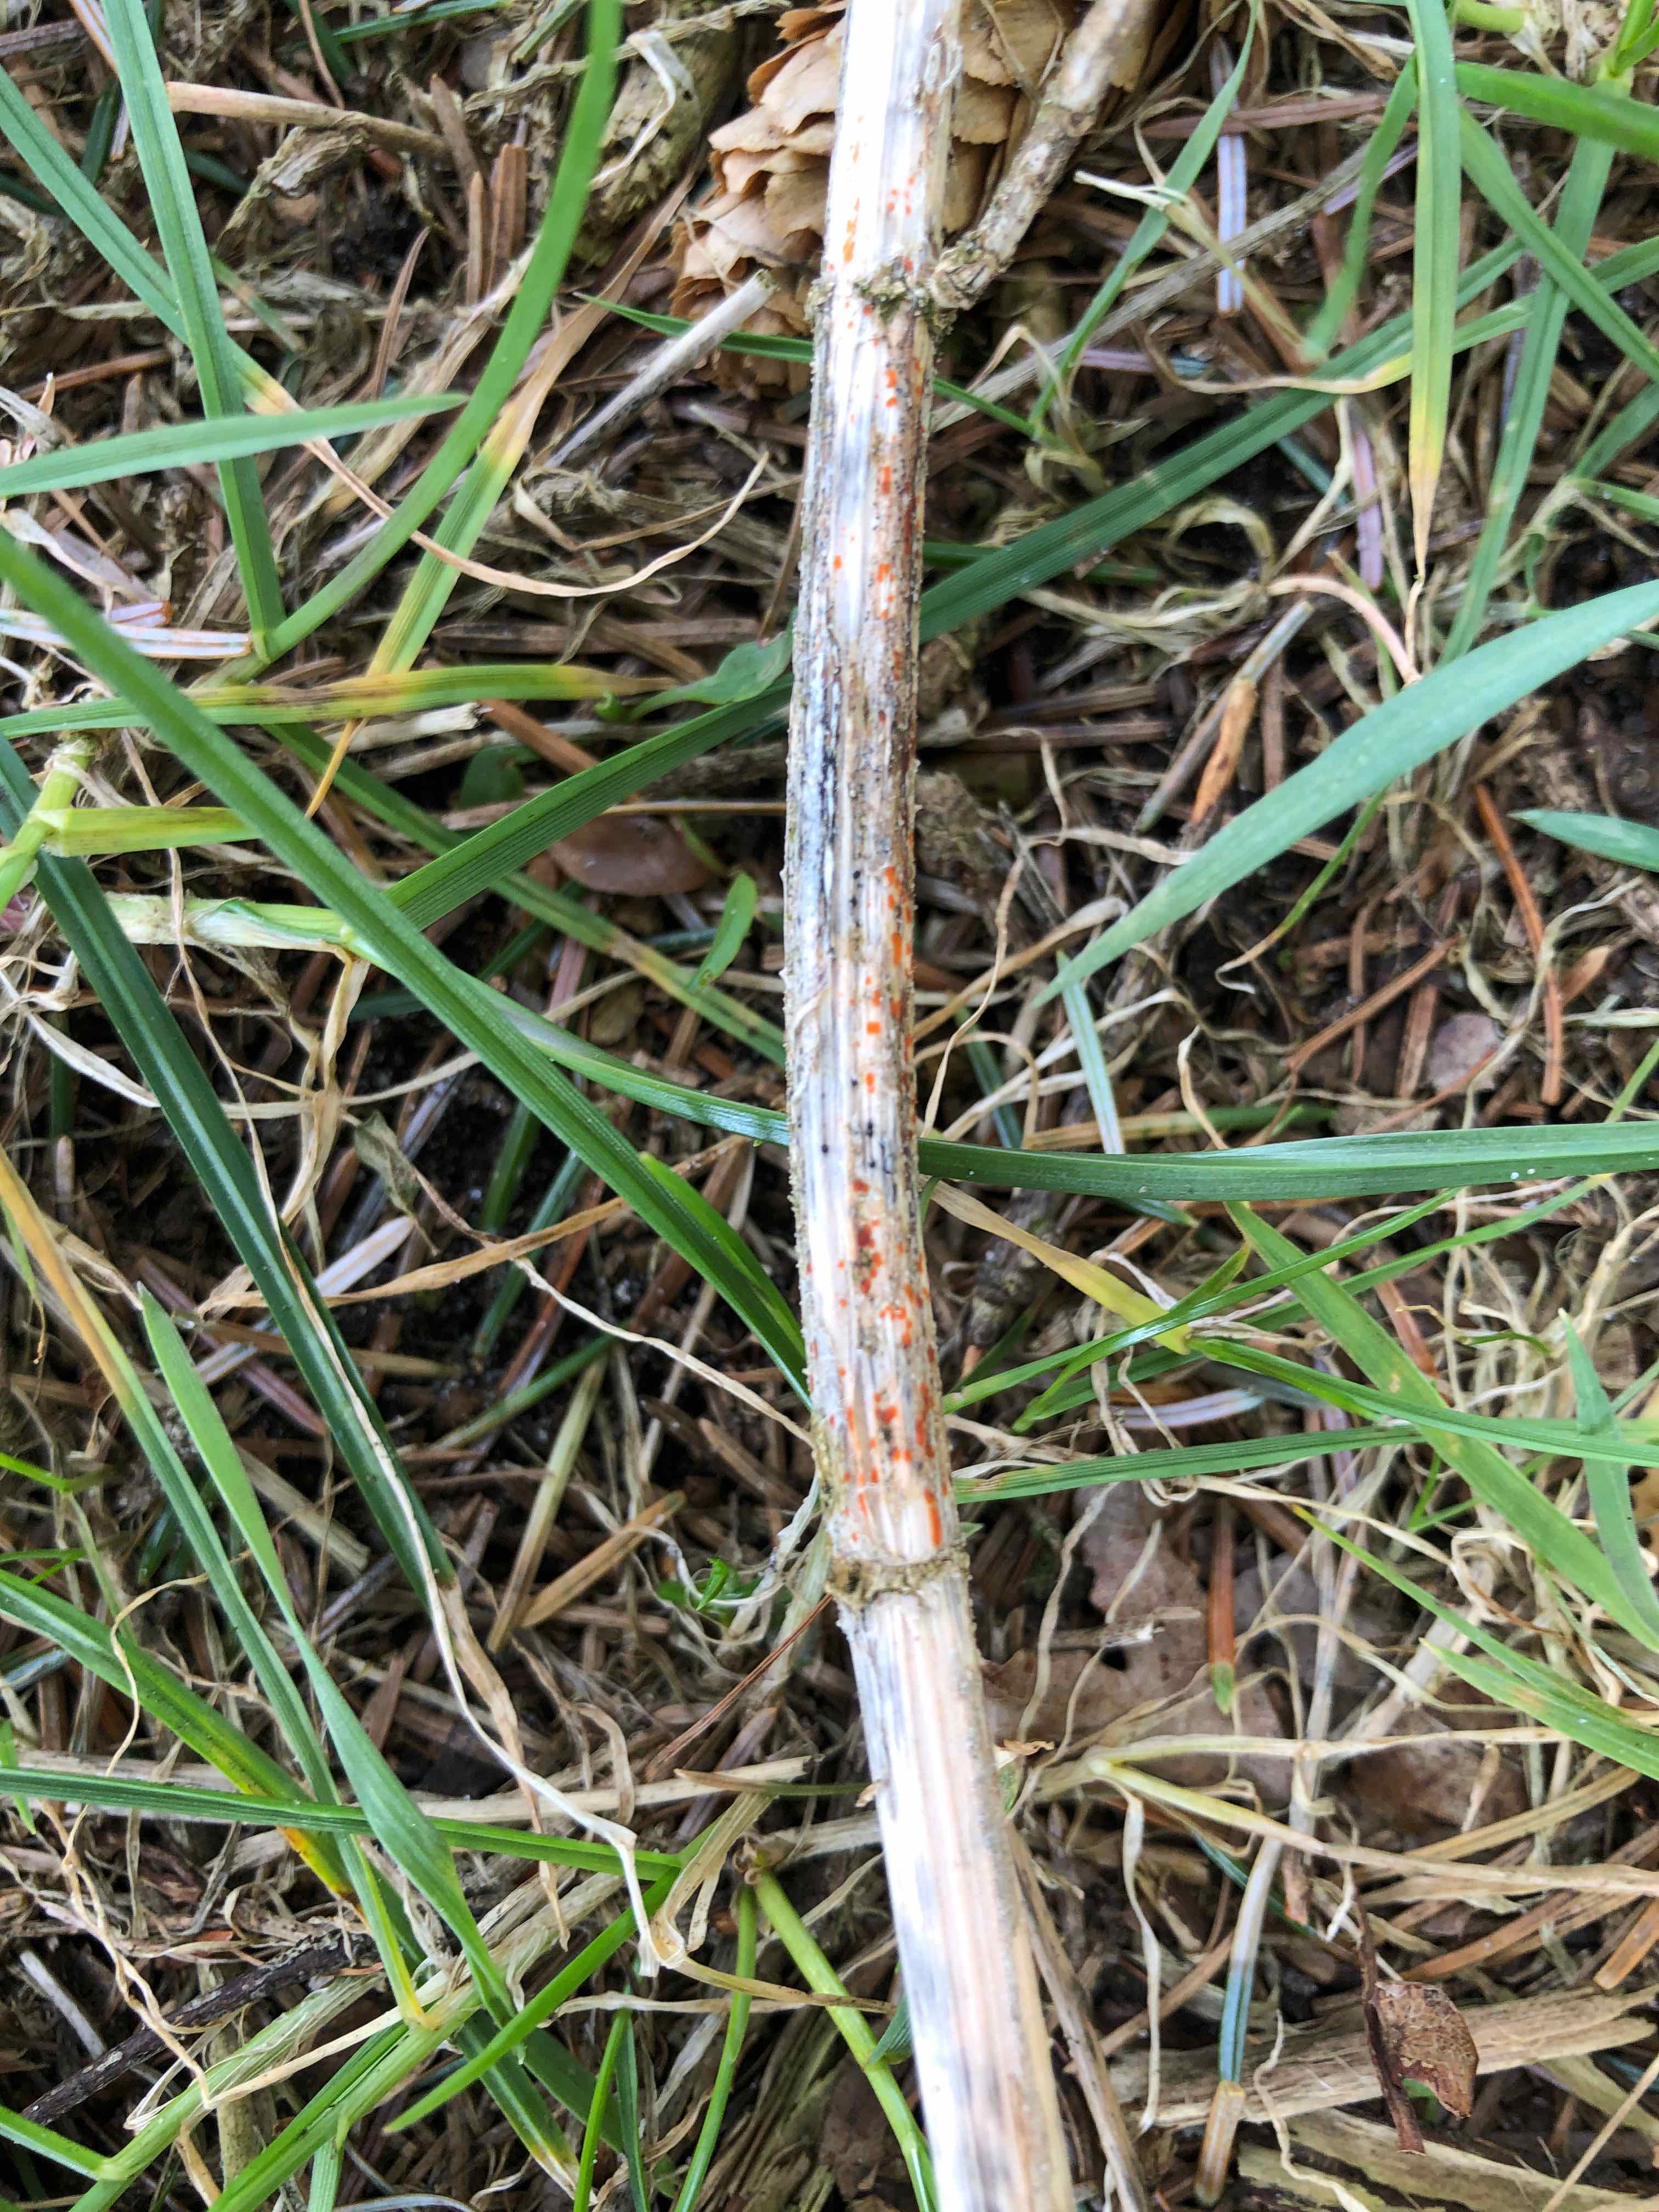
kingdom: Fungi
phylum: Ascomycota
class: Leotiomycetes
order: Helotiales
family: Calloriaceae
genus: Calloria
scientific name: Calloria urticae
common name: nælde-orangeskive
